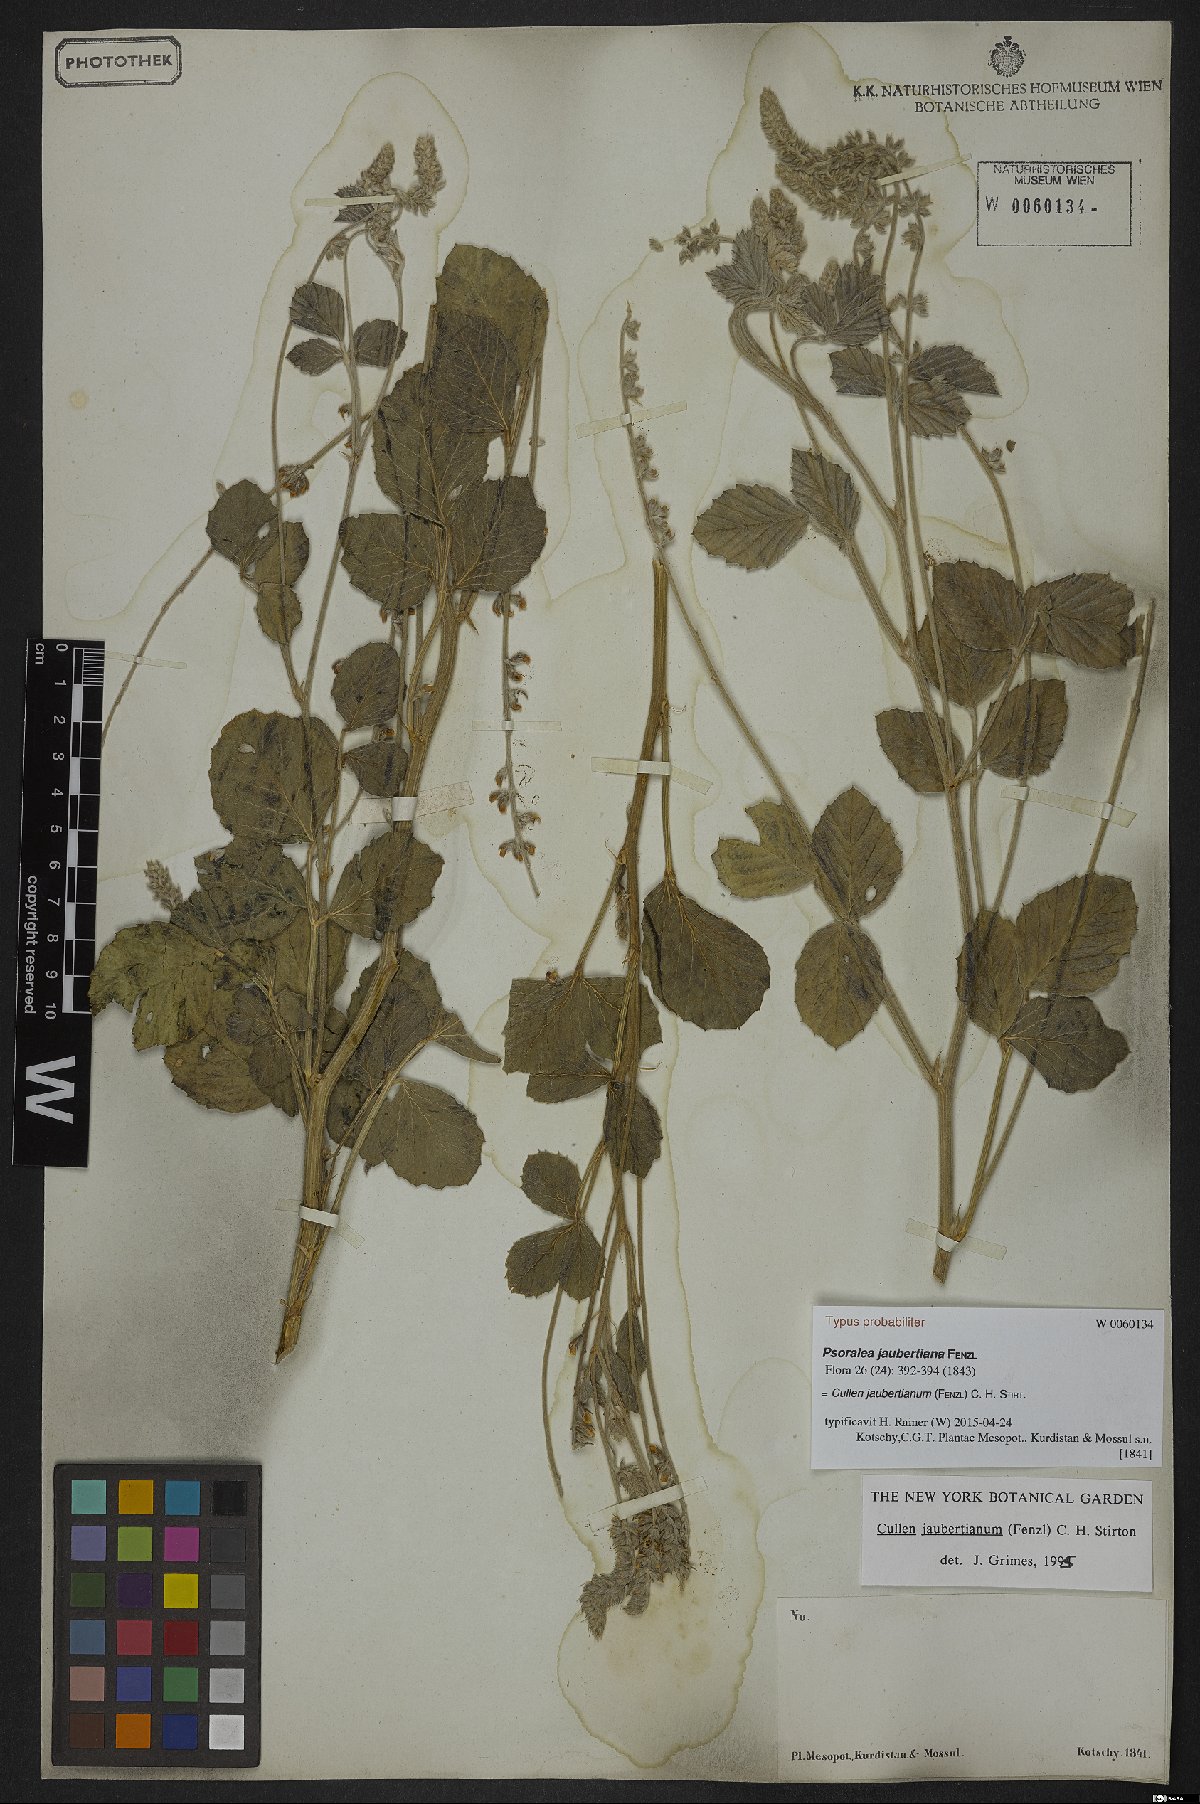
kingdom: Plantae
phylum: Tracheophyta
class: Magnoliopsida
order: Fabales
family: Fabaceae
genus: Cullen
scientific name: Cullen jaubertianum
